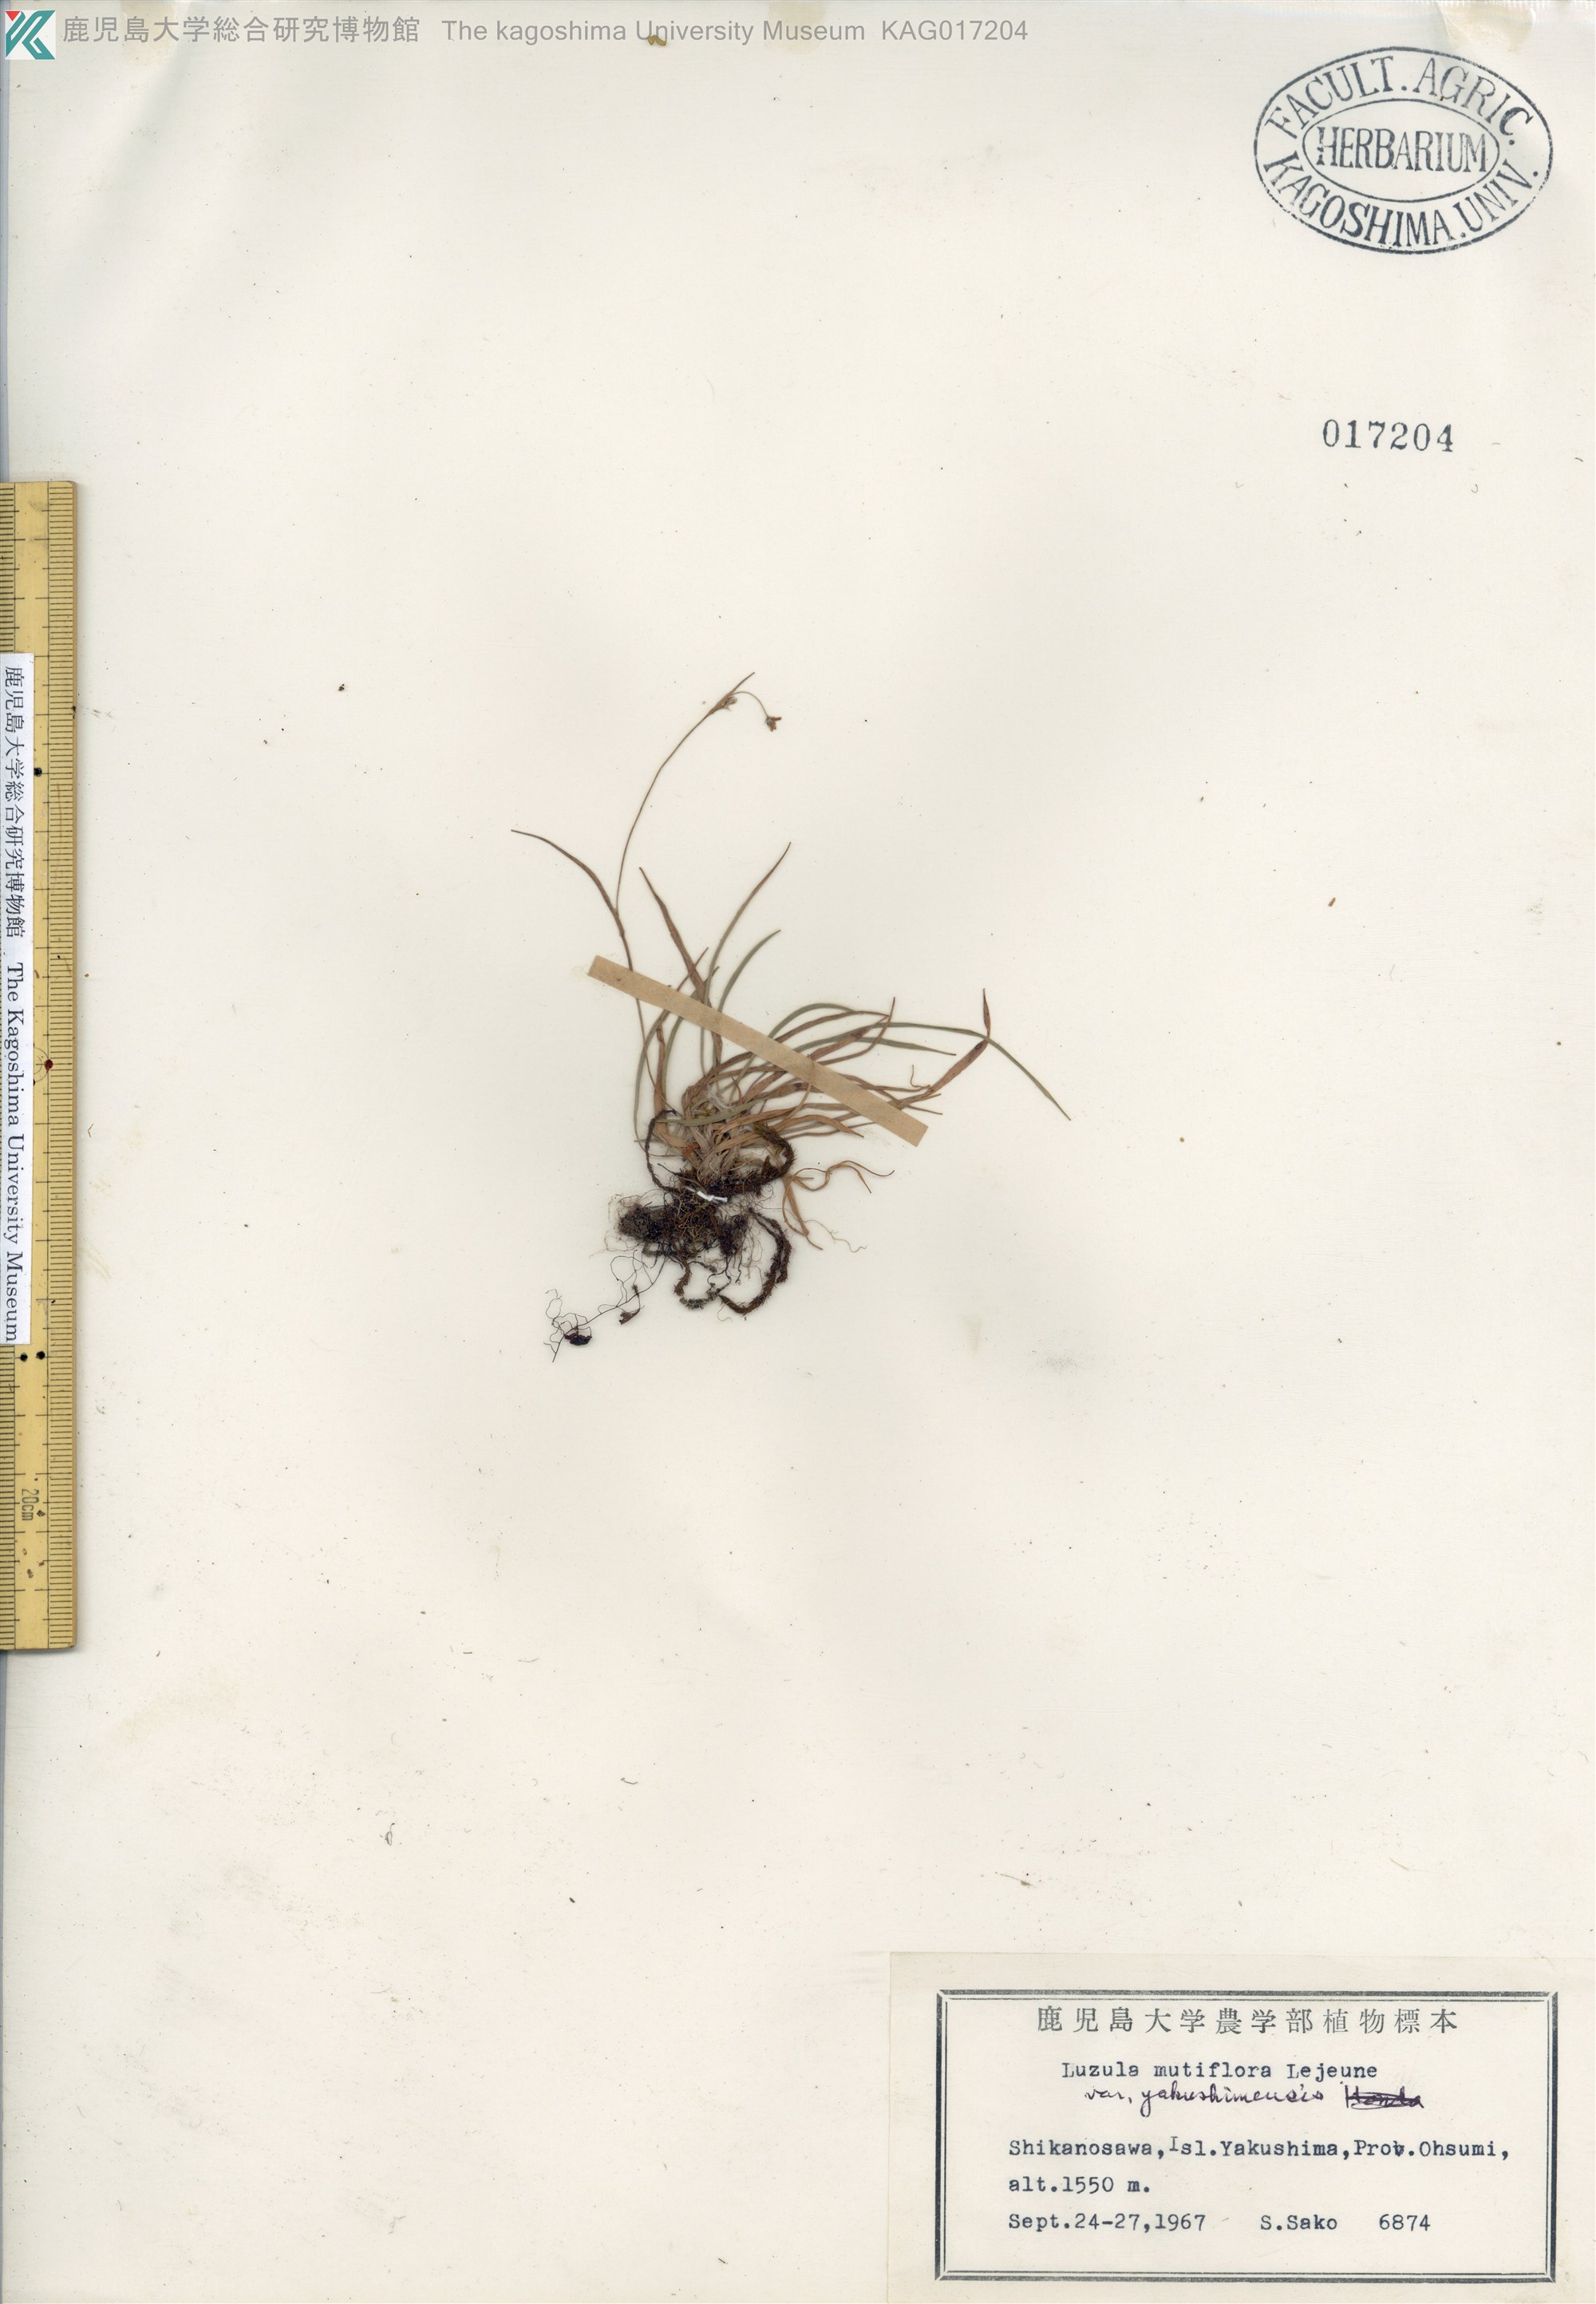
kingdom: Plantae
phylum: Tracheophyta
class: Liliopsida
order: Poales
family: Juncaceae
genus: Luzula
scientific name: Luzula multiflora
